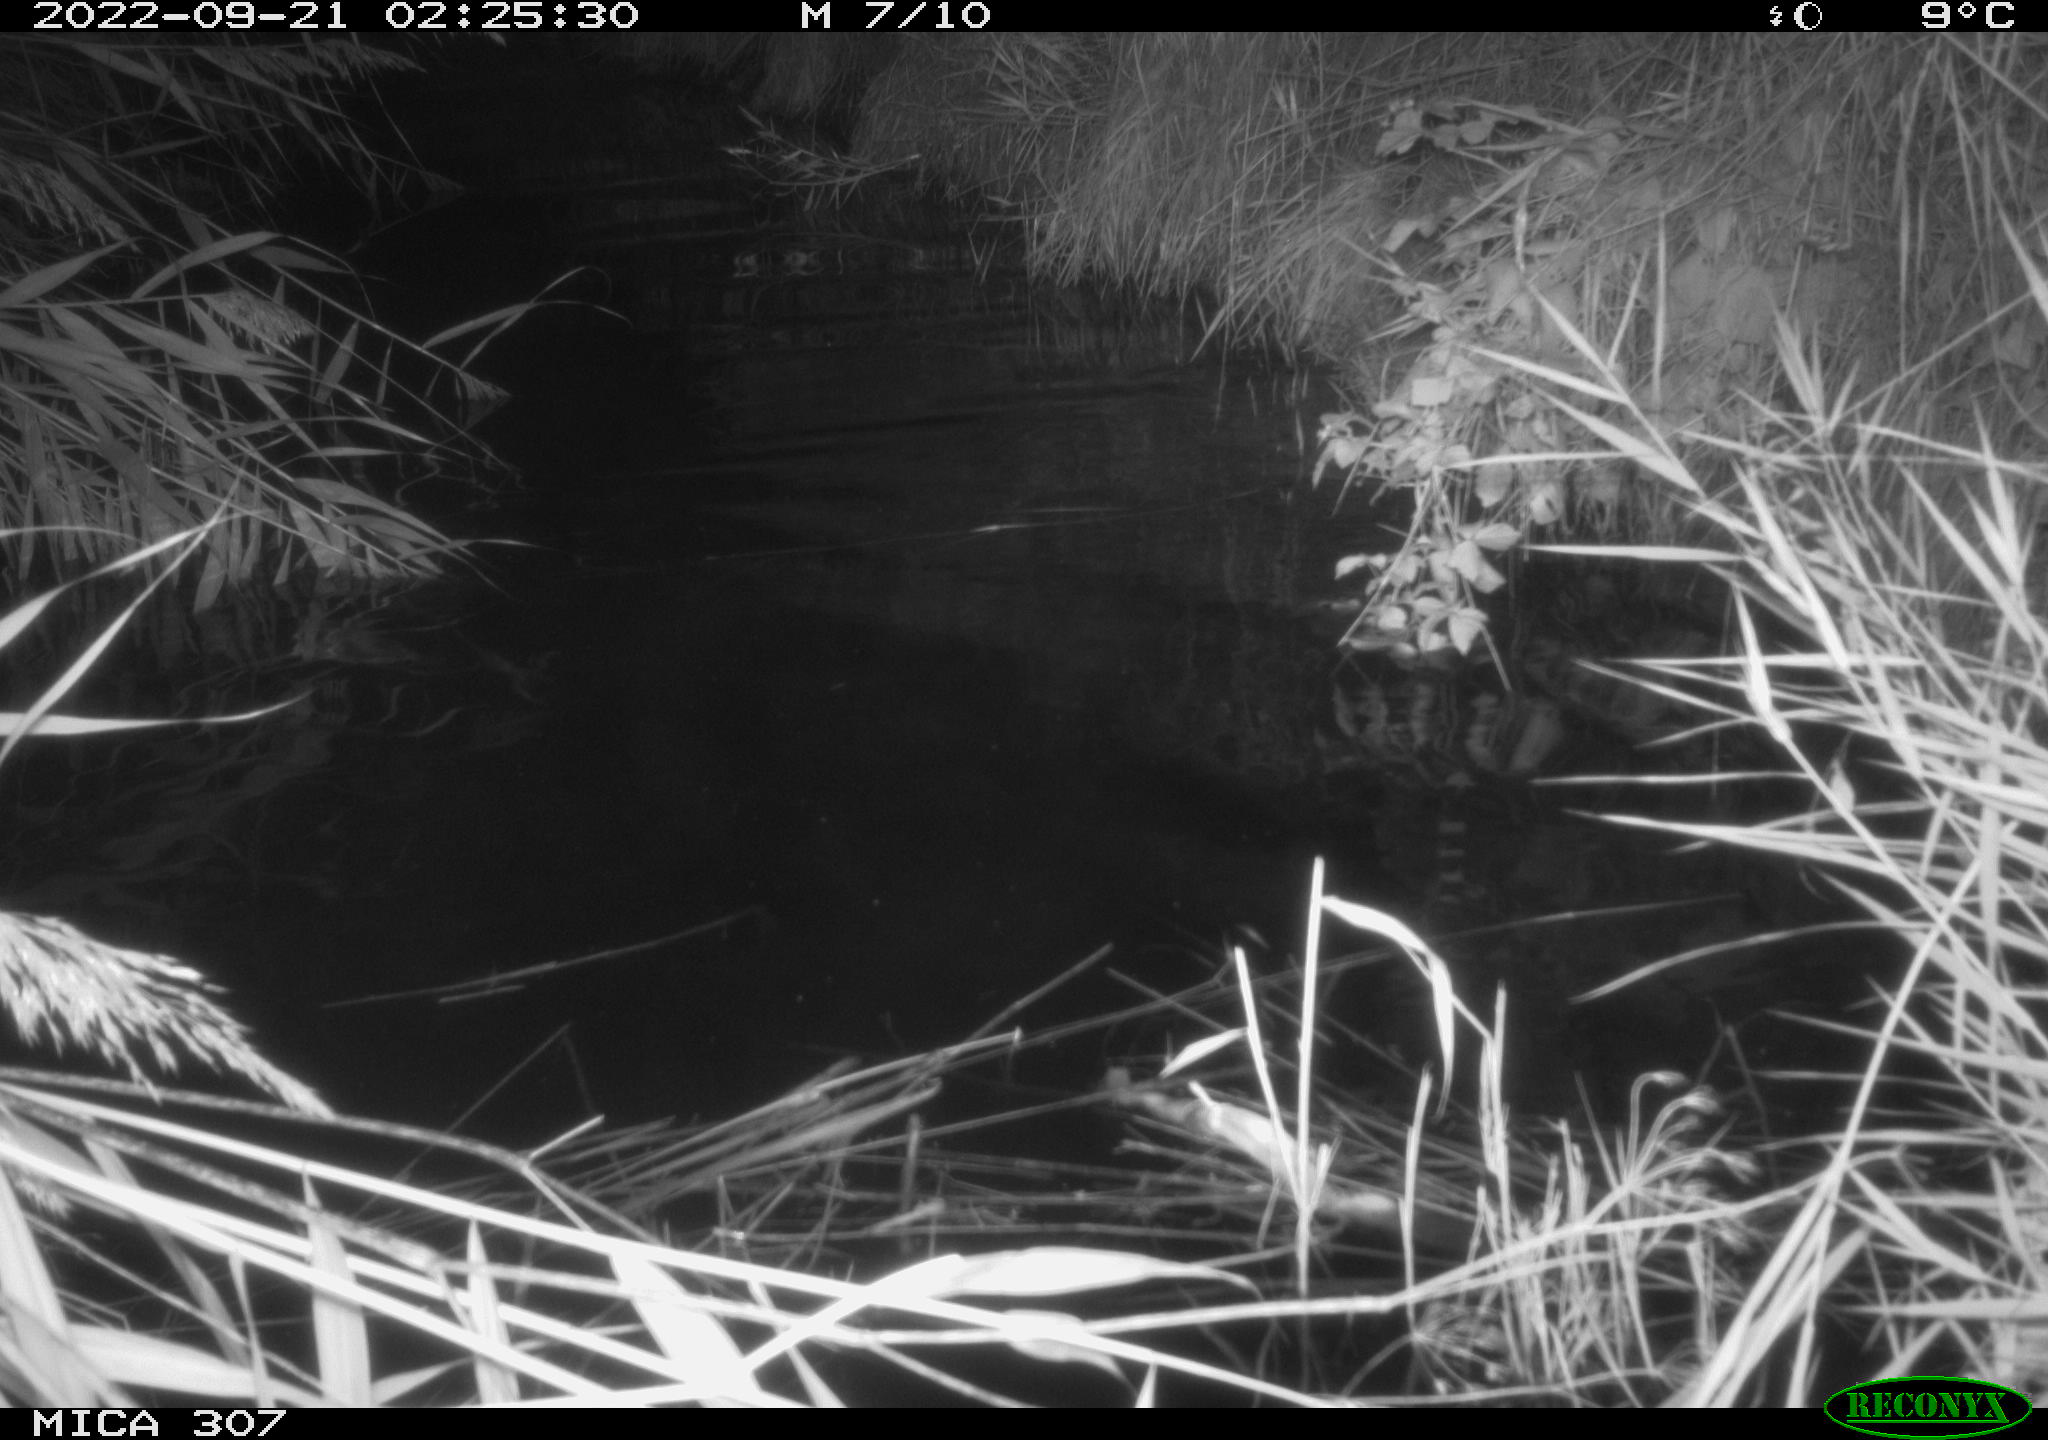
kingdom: Animalia
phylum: Chordata
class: Mammalia
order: Rodentia
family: Muridae
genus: Rattus
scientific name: Rattus norvegicus
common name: Brown rat
